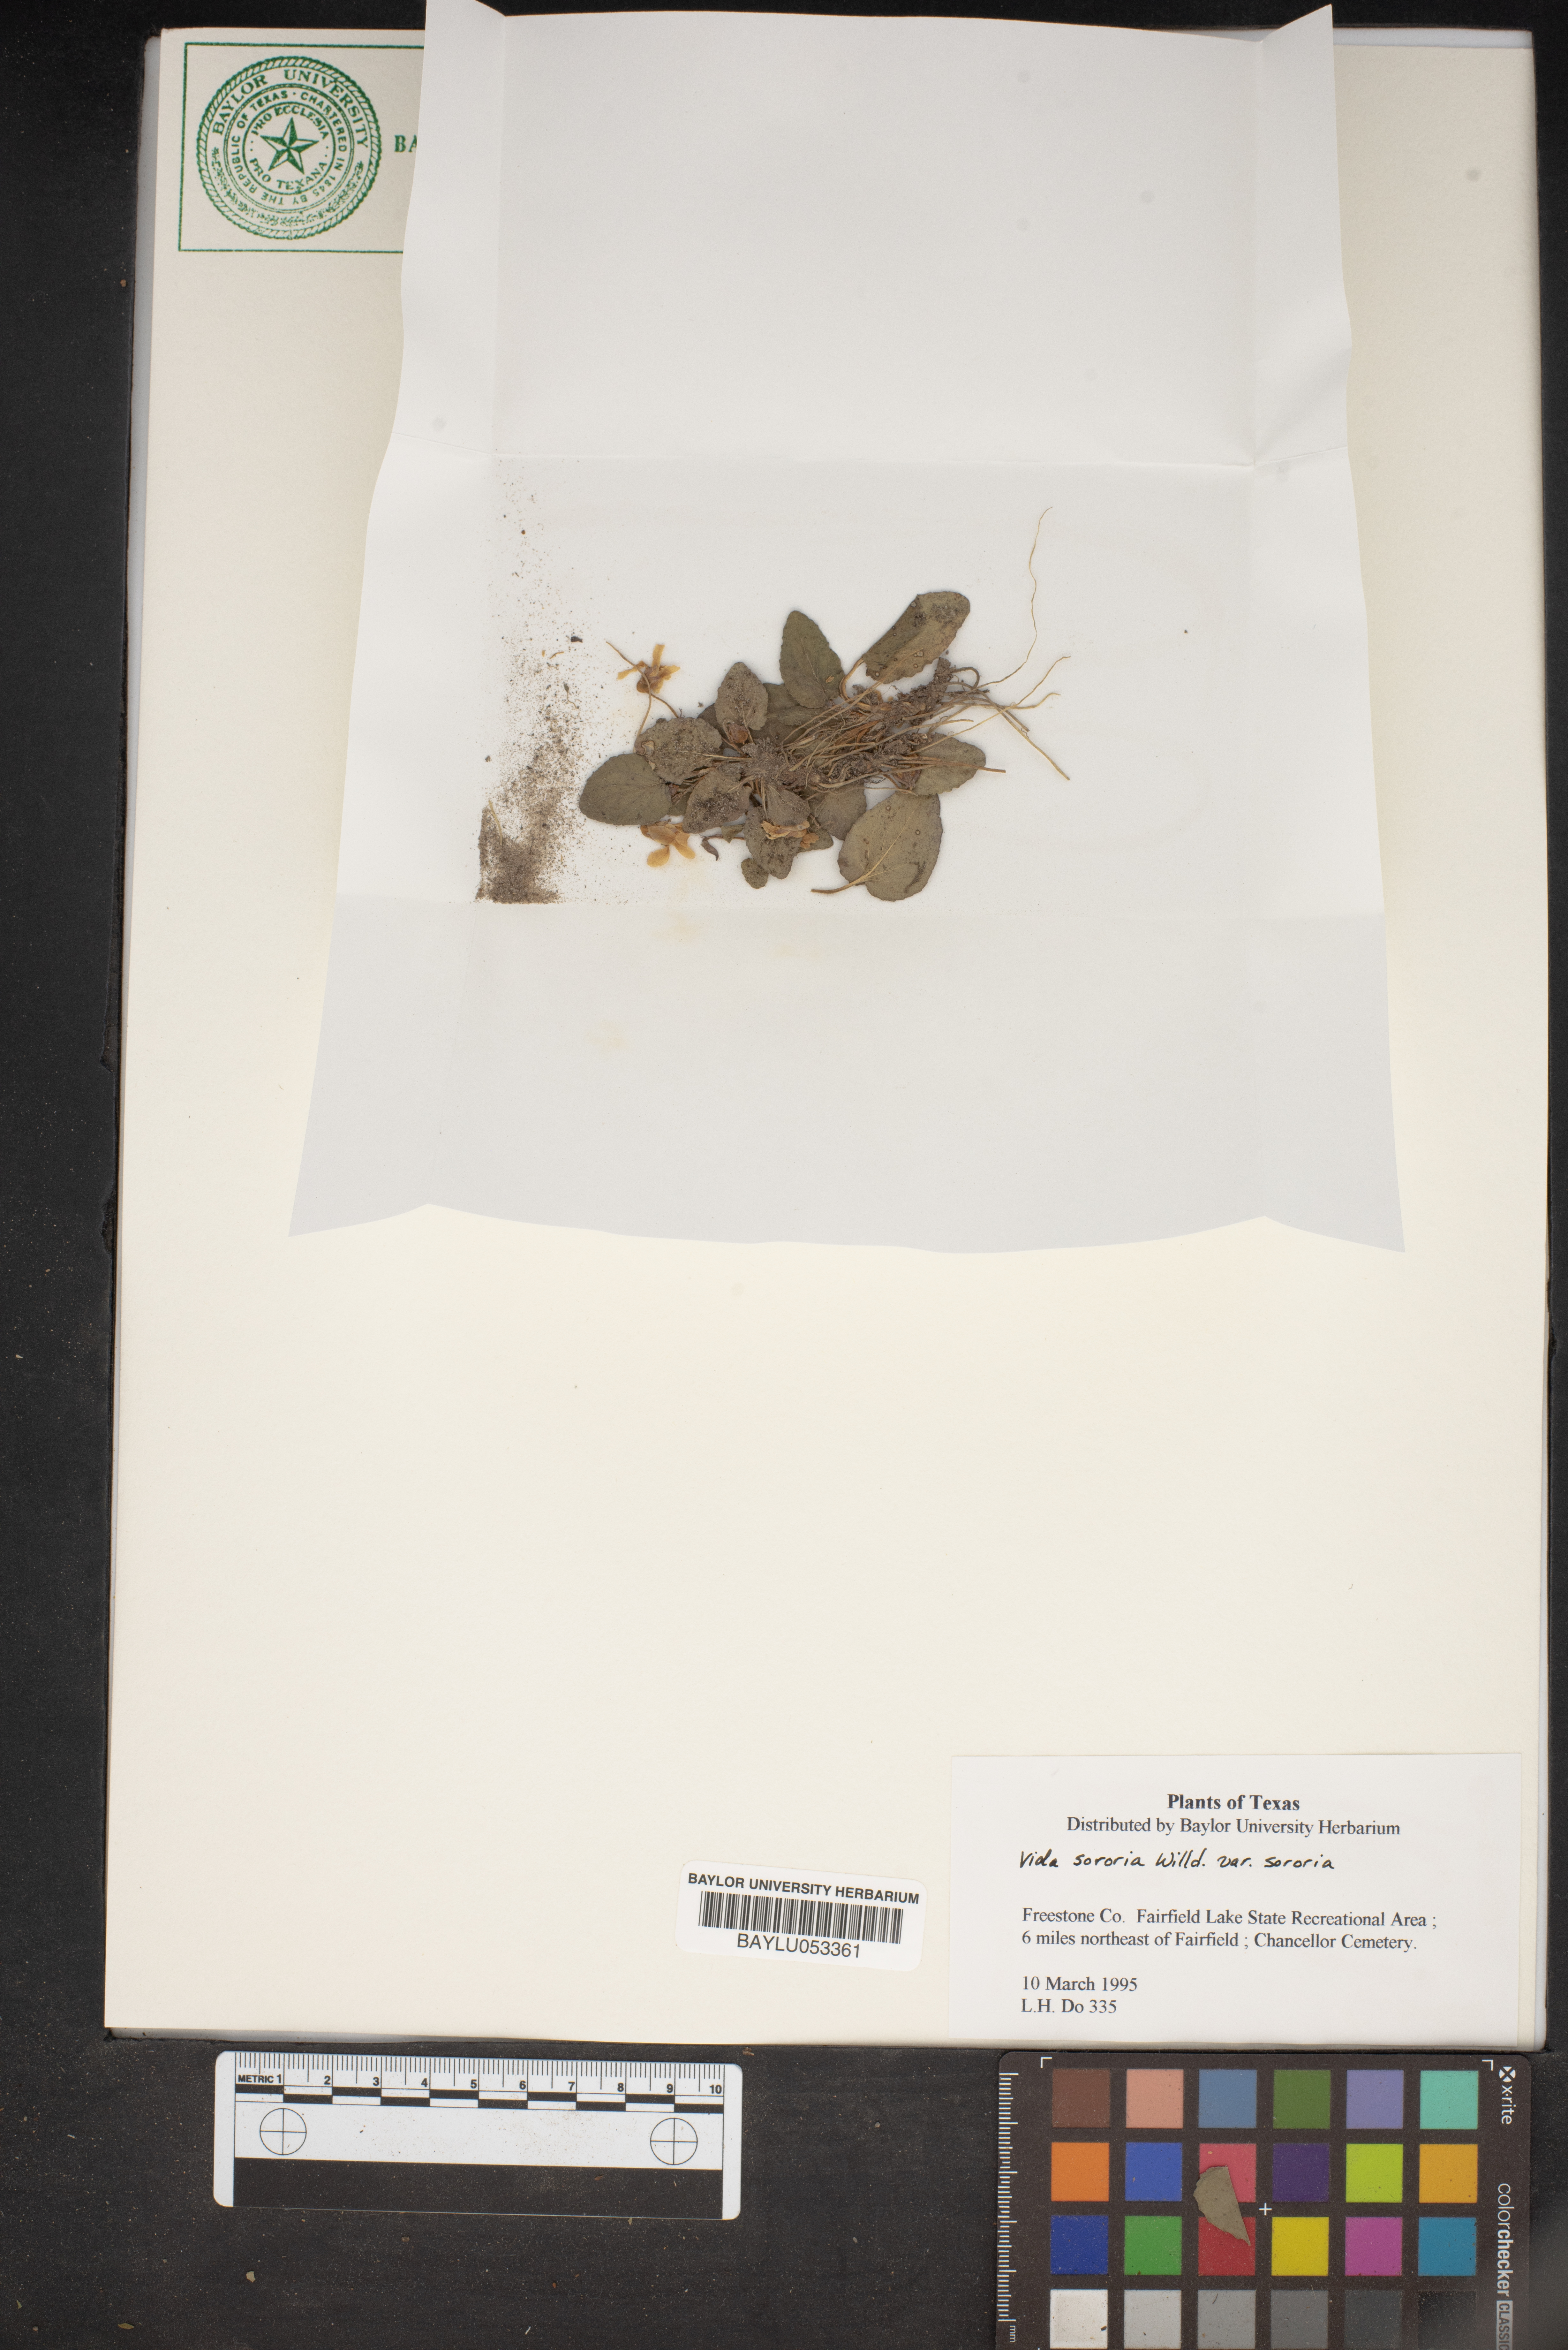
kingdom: Plantae
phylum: Tracheophyta
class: Magnoliopsida
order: Malpighiales
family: Violaceae
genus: Viola
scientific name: Viola sororia
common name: Dooryard violet
